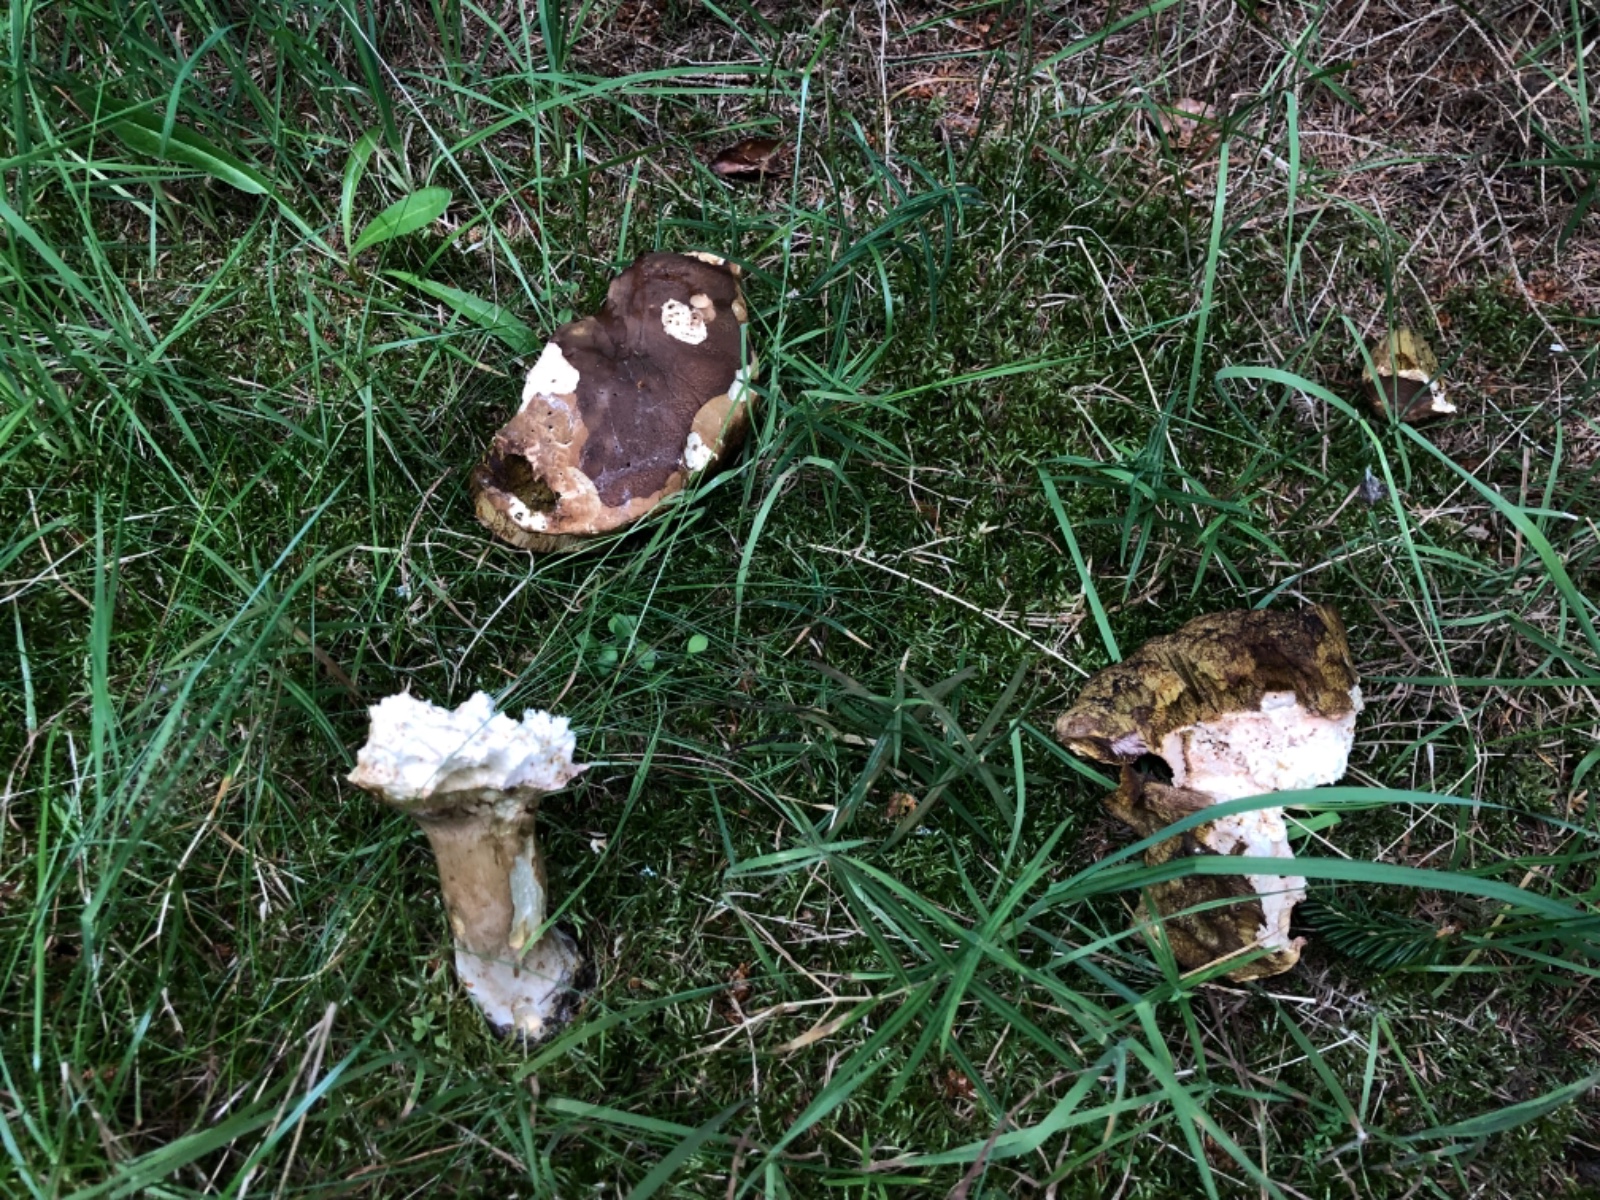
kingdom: Fungi
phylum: Basidiomycota
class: Agaricomycetes
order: Boletales
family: Boletaceae
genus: Boletus
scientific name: Boletus
